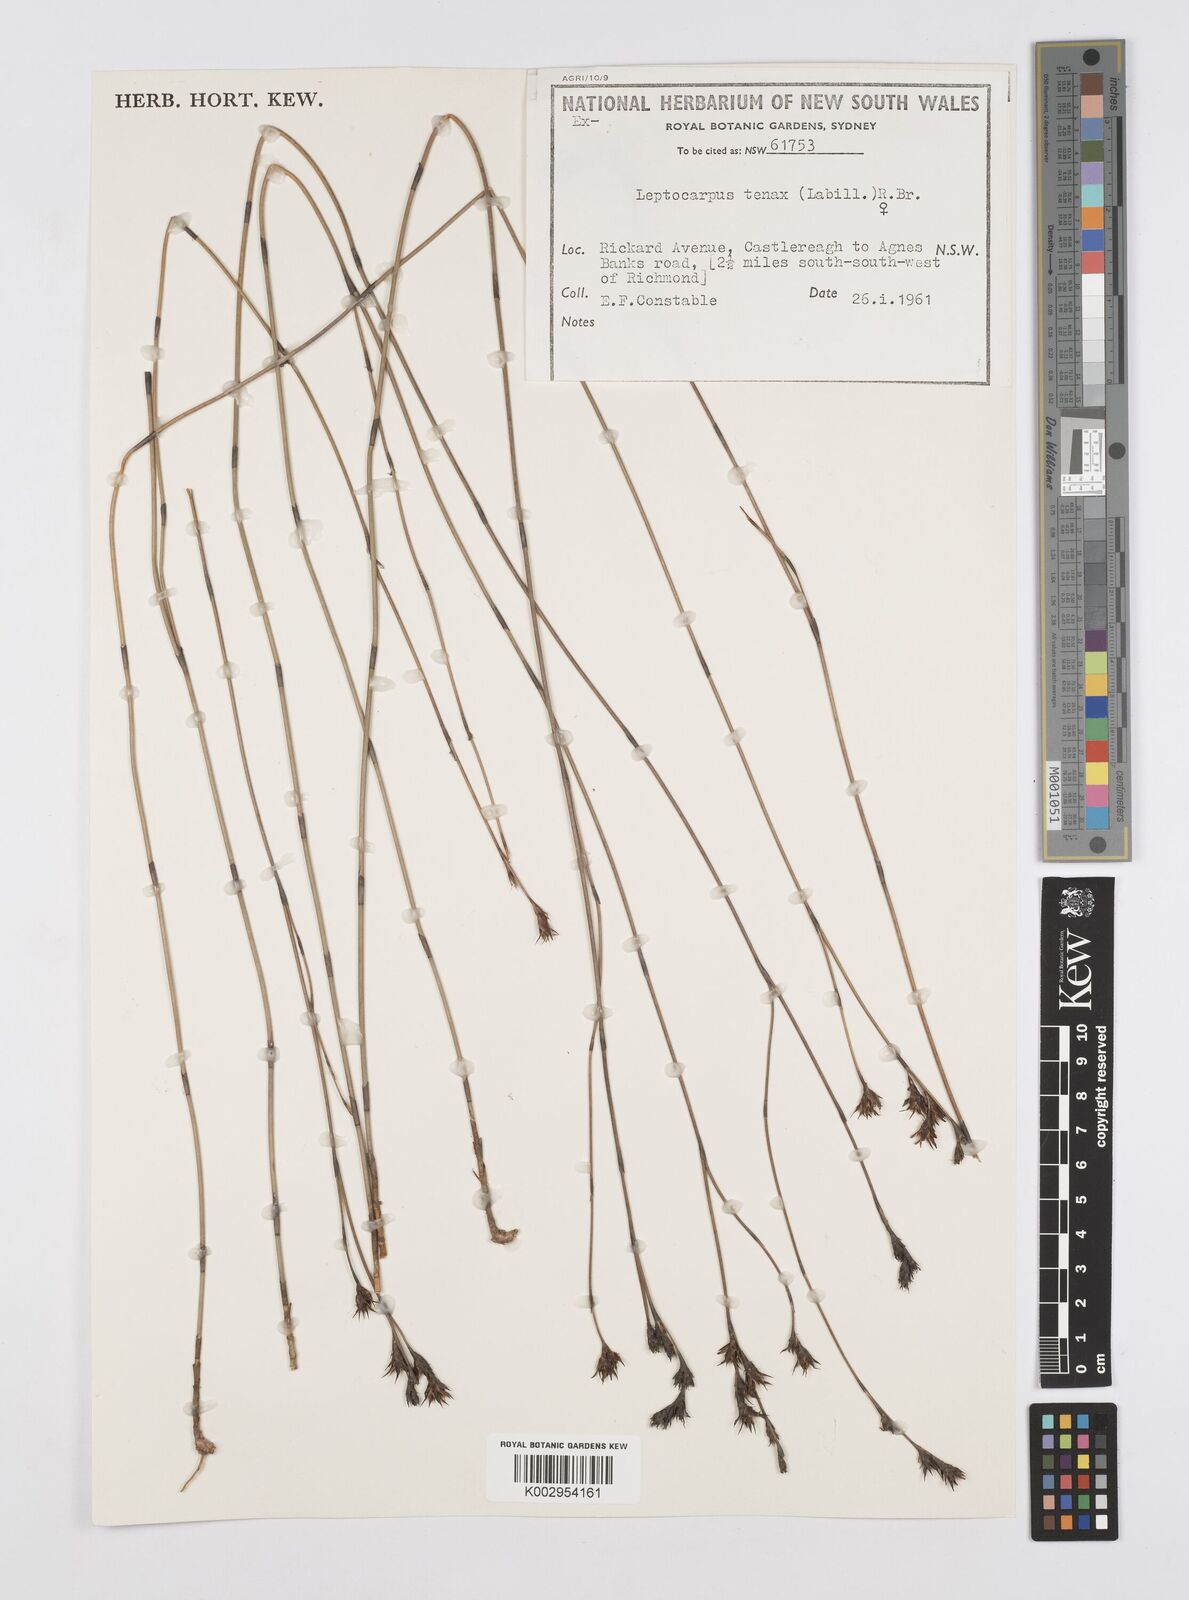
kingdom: Plantae
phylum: Tracheophyta
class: Liliopsida
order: Poales
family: Restionaceae
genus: Leptocarpus
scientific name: Leptocarpus tenax
